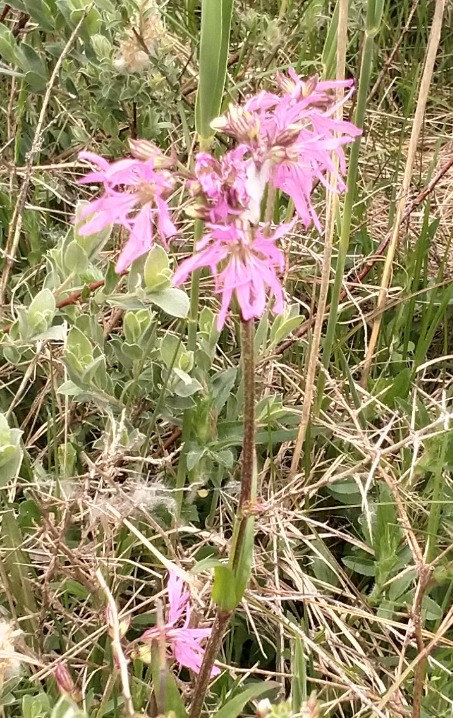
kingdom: Plantae
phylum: Tracheophyta
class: Magnoliopsida
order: Caryophyllales
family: Caryophyllaceae
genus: Silene
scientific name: Silene flos-cuculi
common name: Trævlekrone
